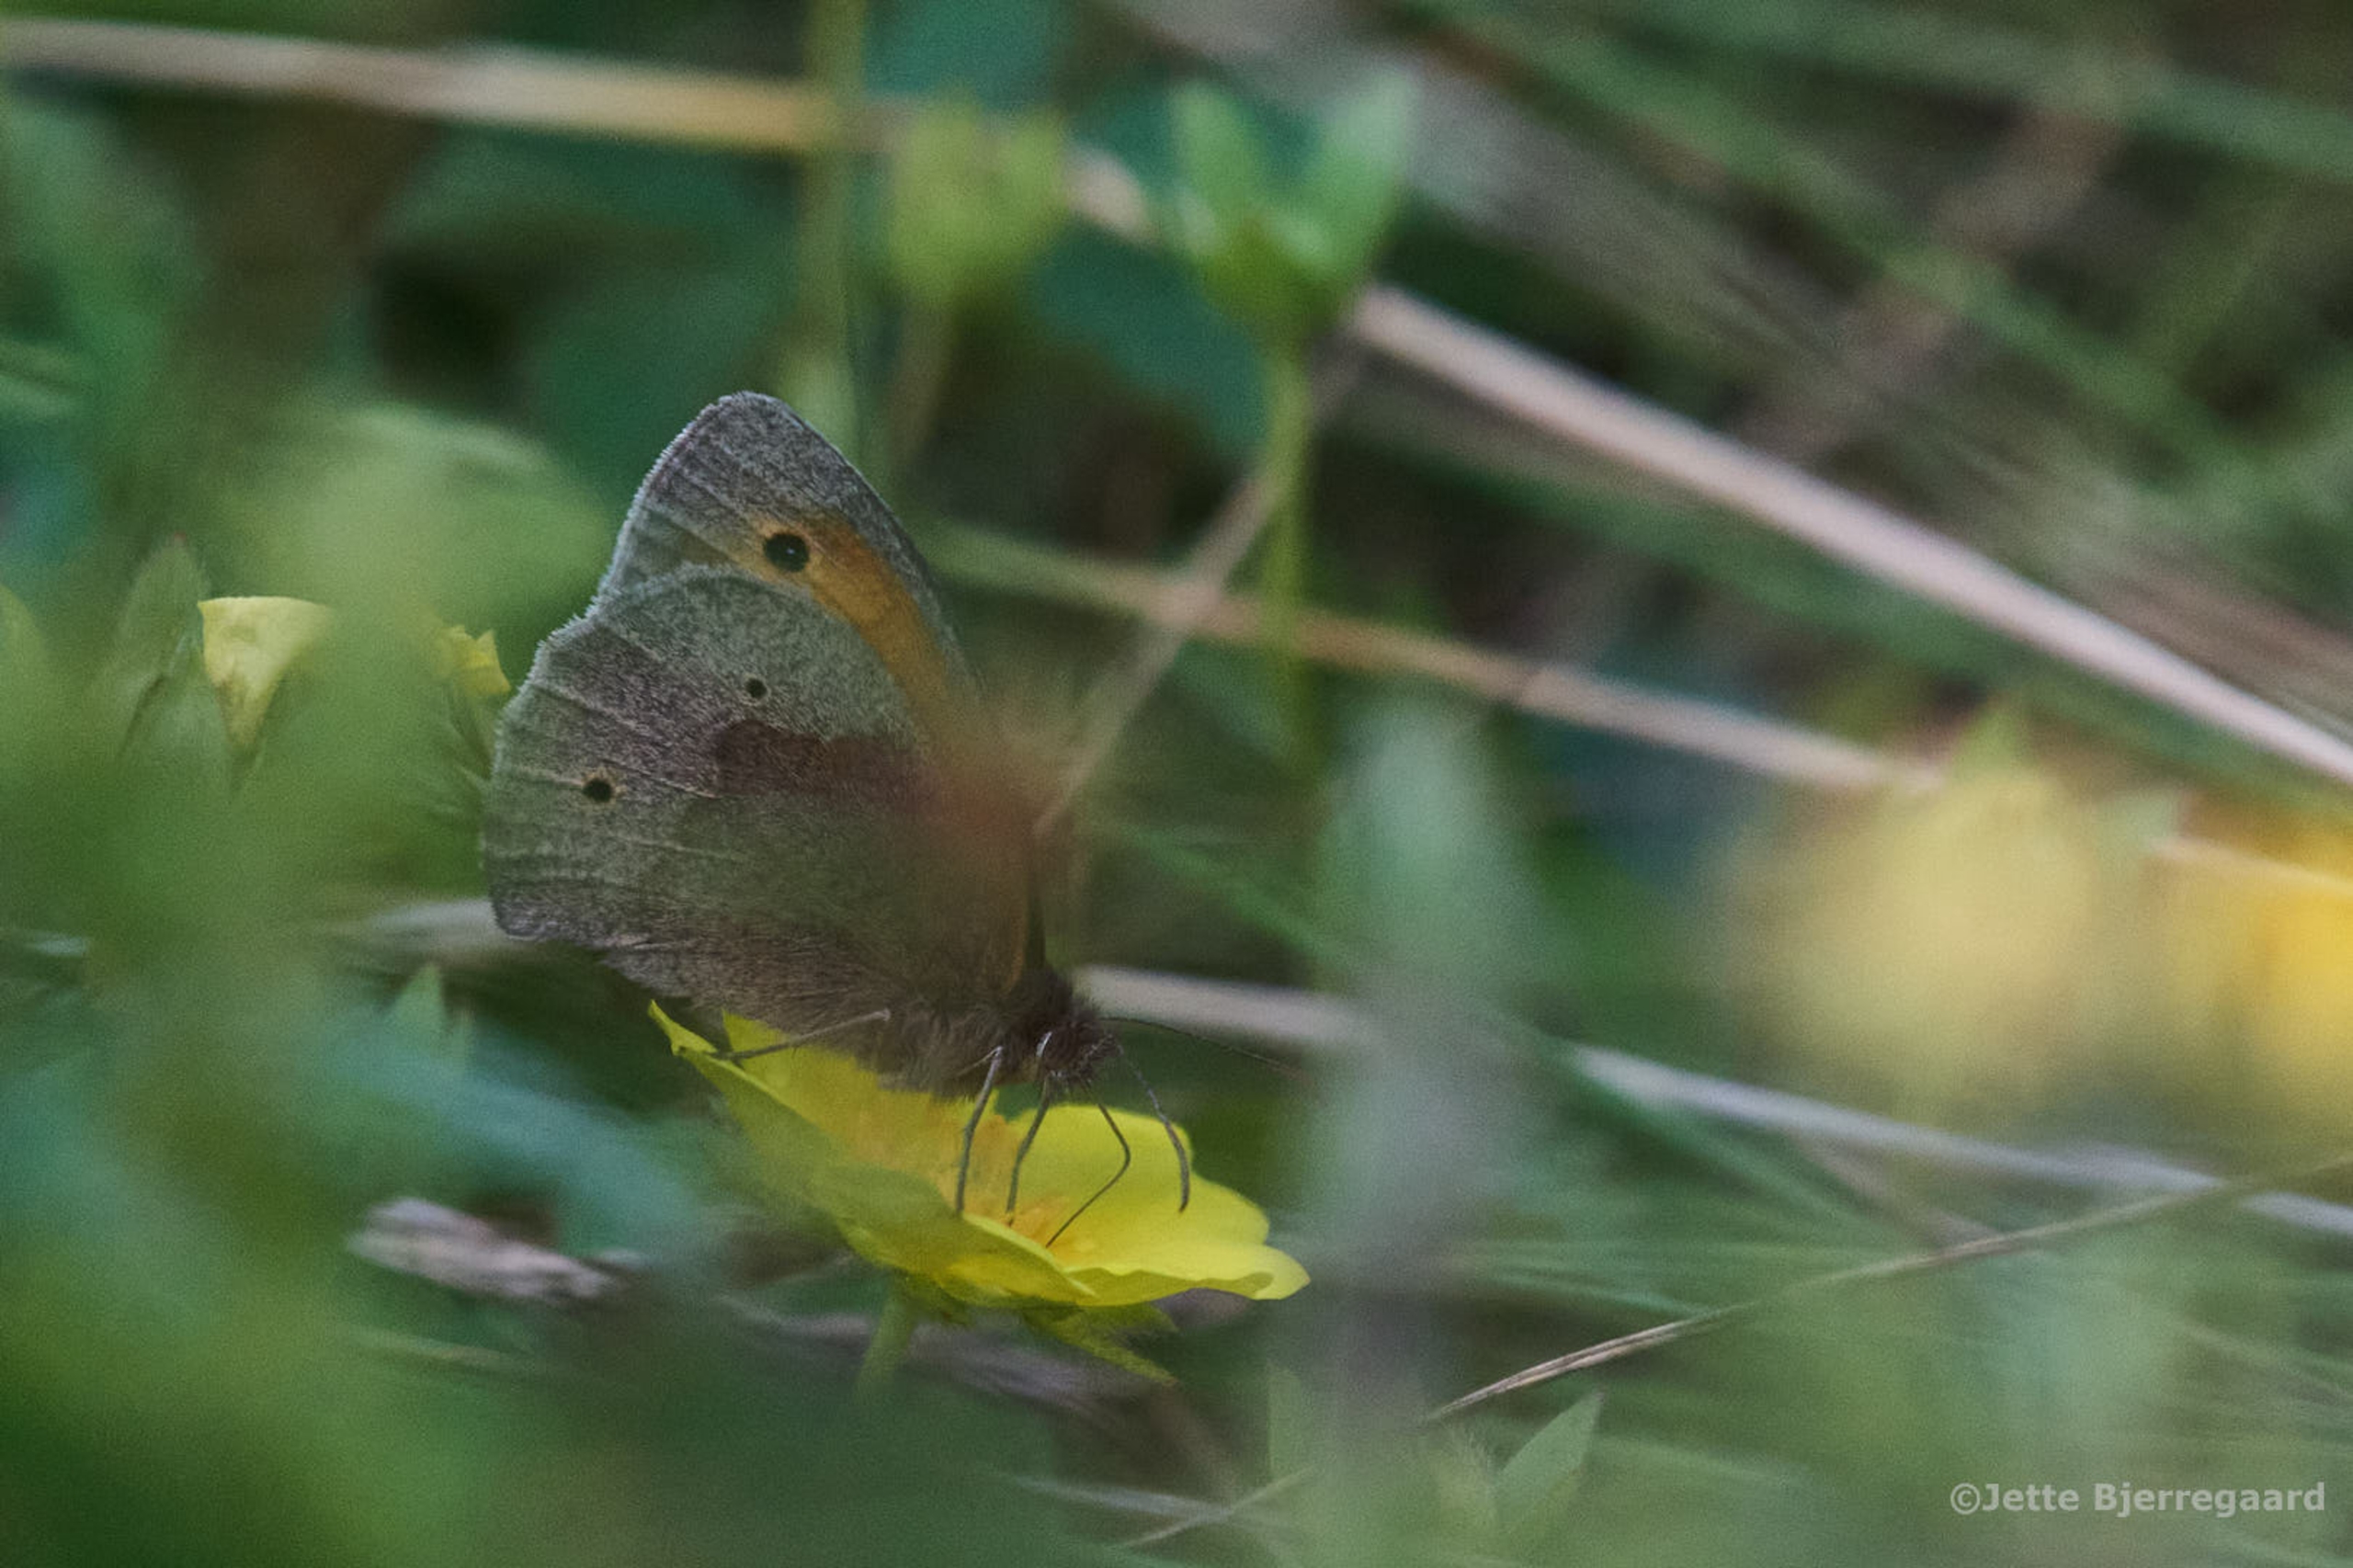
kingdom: Animalia
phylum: Arthropoda
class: Insecta
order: Lepidoptera
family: Nymphalidae
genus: Maniola
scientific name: Maniola jurtina
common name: Græsrandøje
